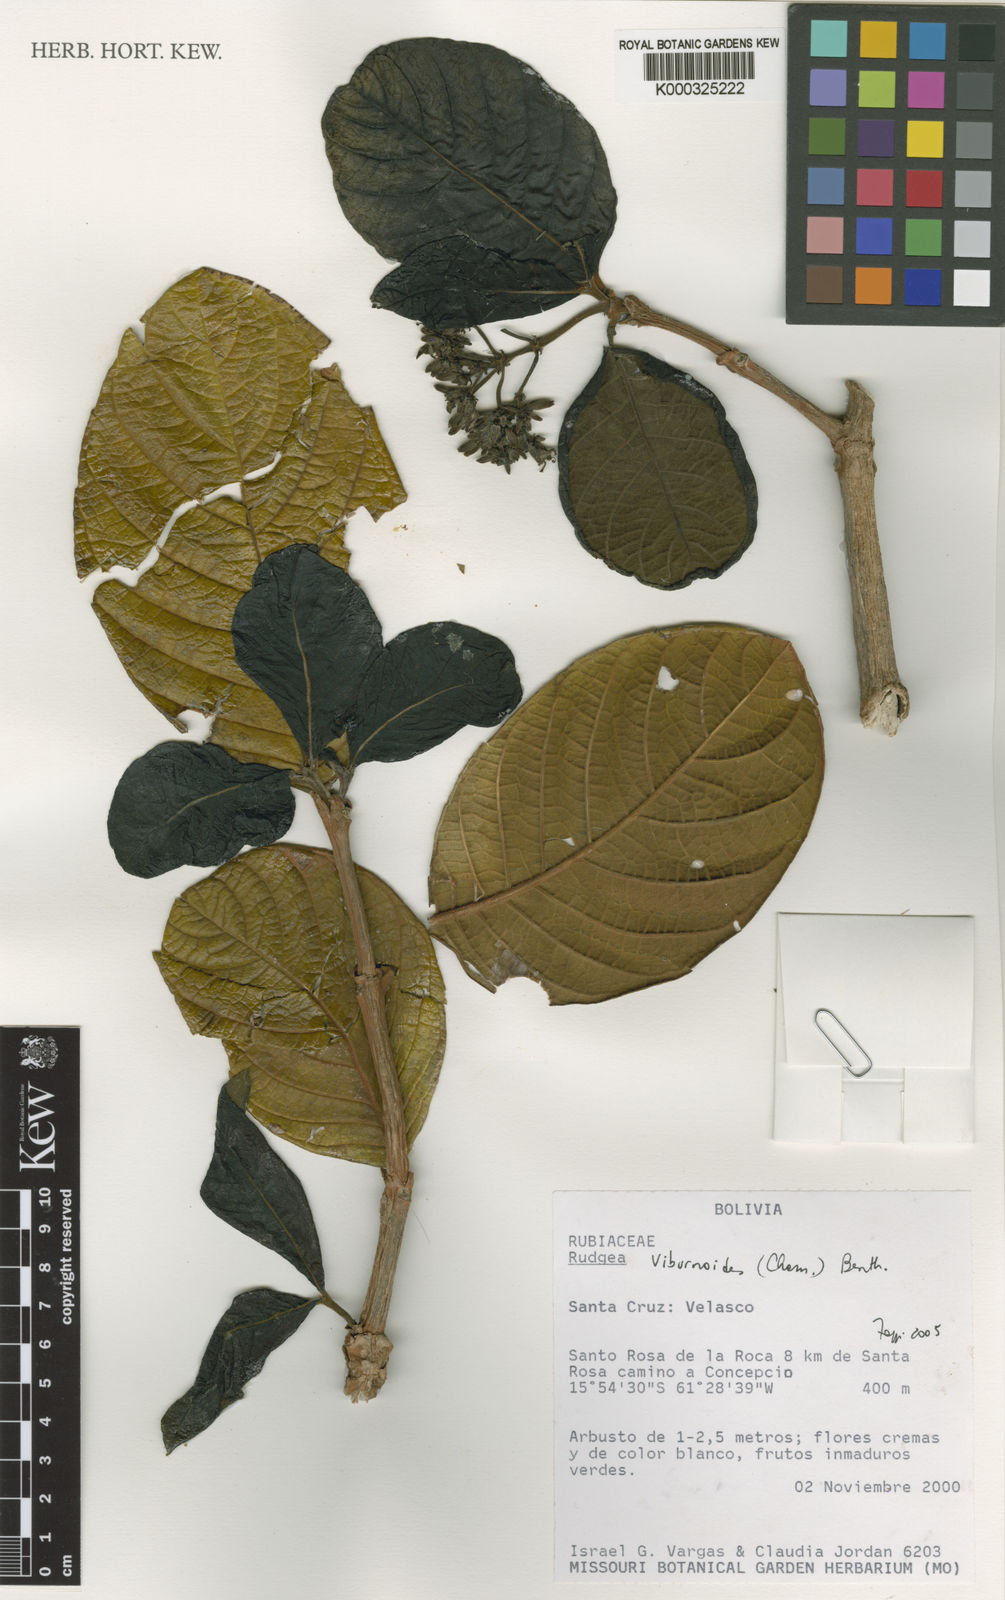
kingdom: Plantae
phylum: Tracheophyta
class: Magnoliopsida
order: Gentianales
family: Rubiaceae
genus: Rudgea
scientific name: Rudgea viburnoides
